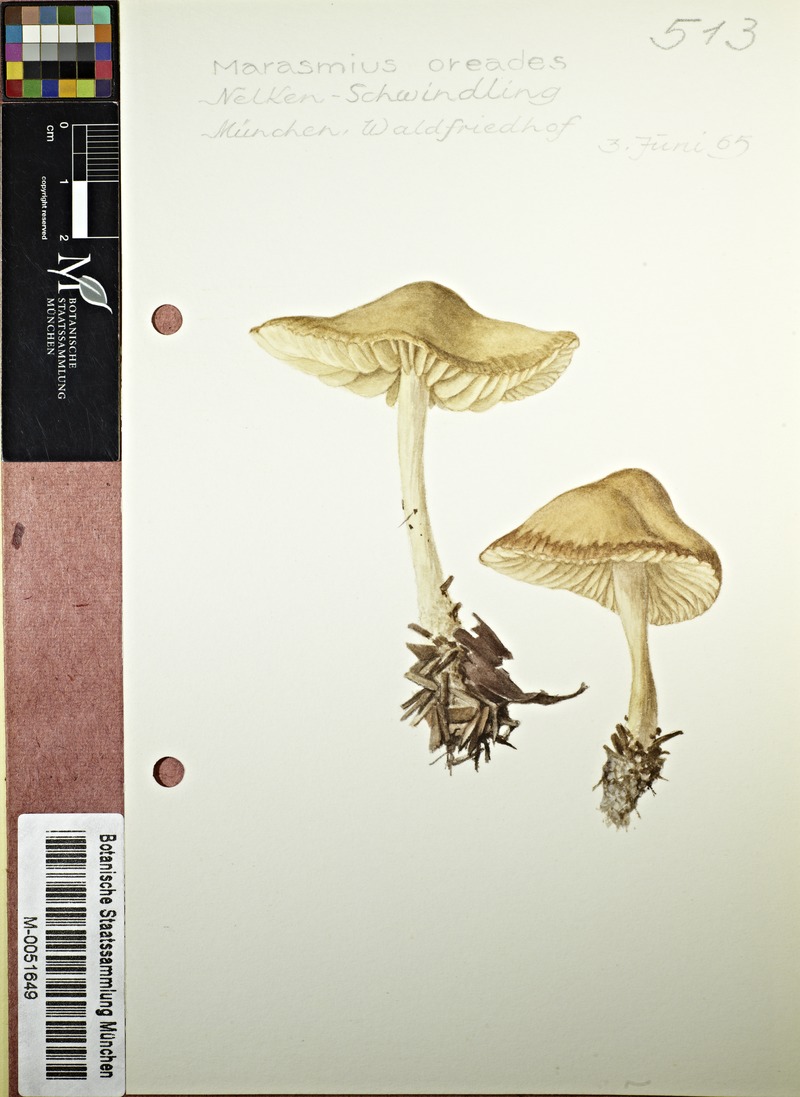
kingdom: Fungi
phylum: Basidiomycota
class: Agaricomycetes
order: Agaricales
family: Marasmiaceae
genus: Marasmius
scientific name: Marasmius oreades
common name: Fairy ring champignon
